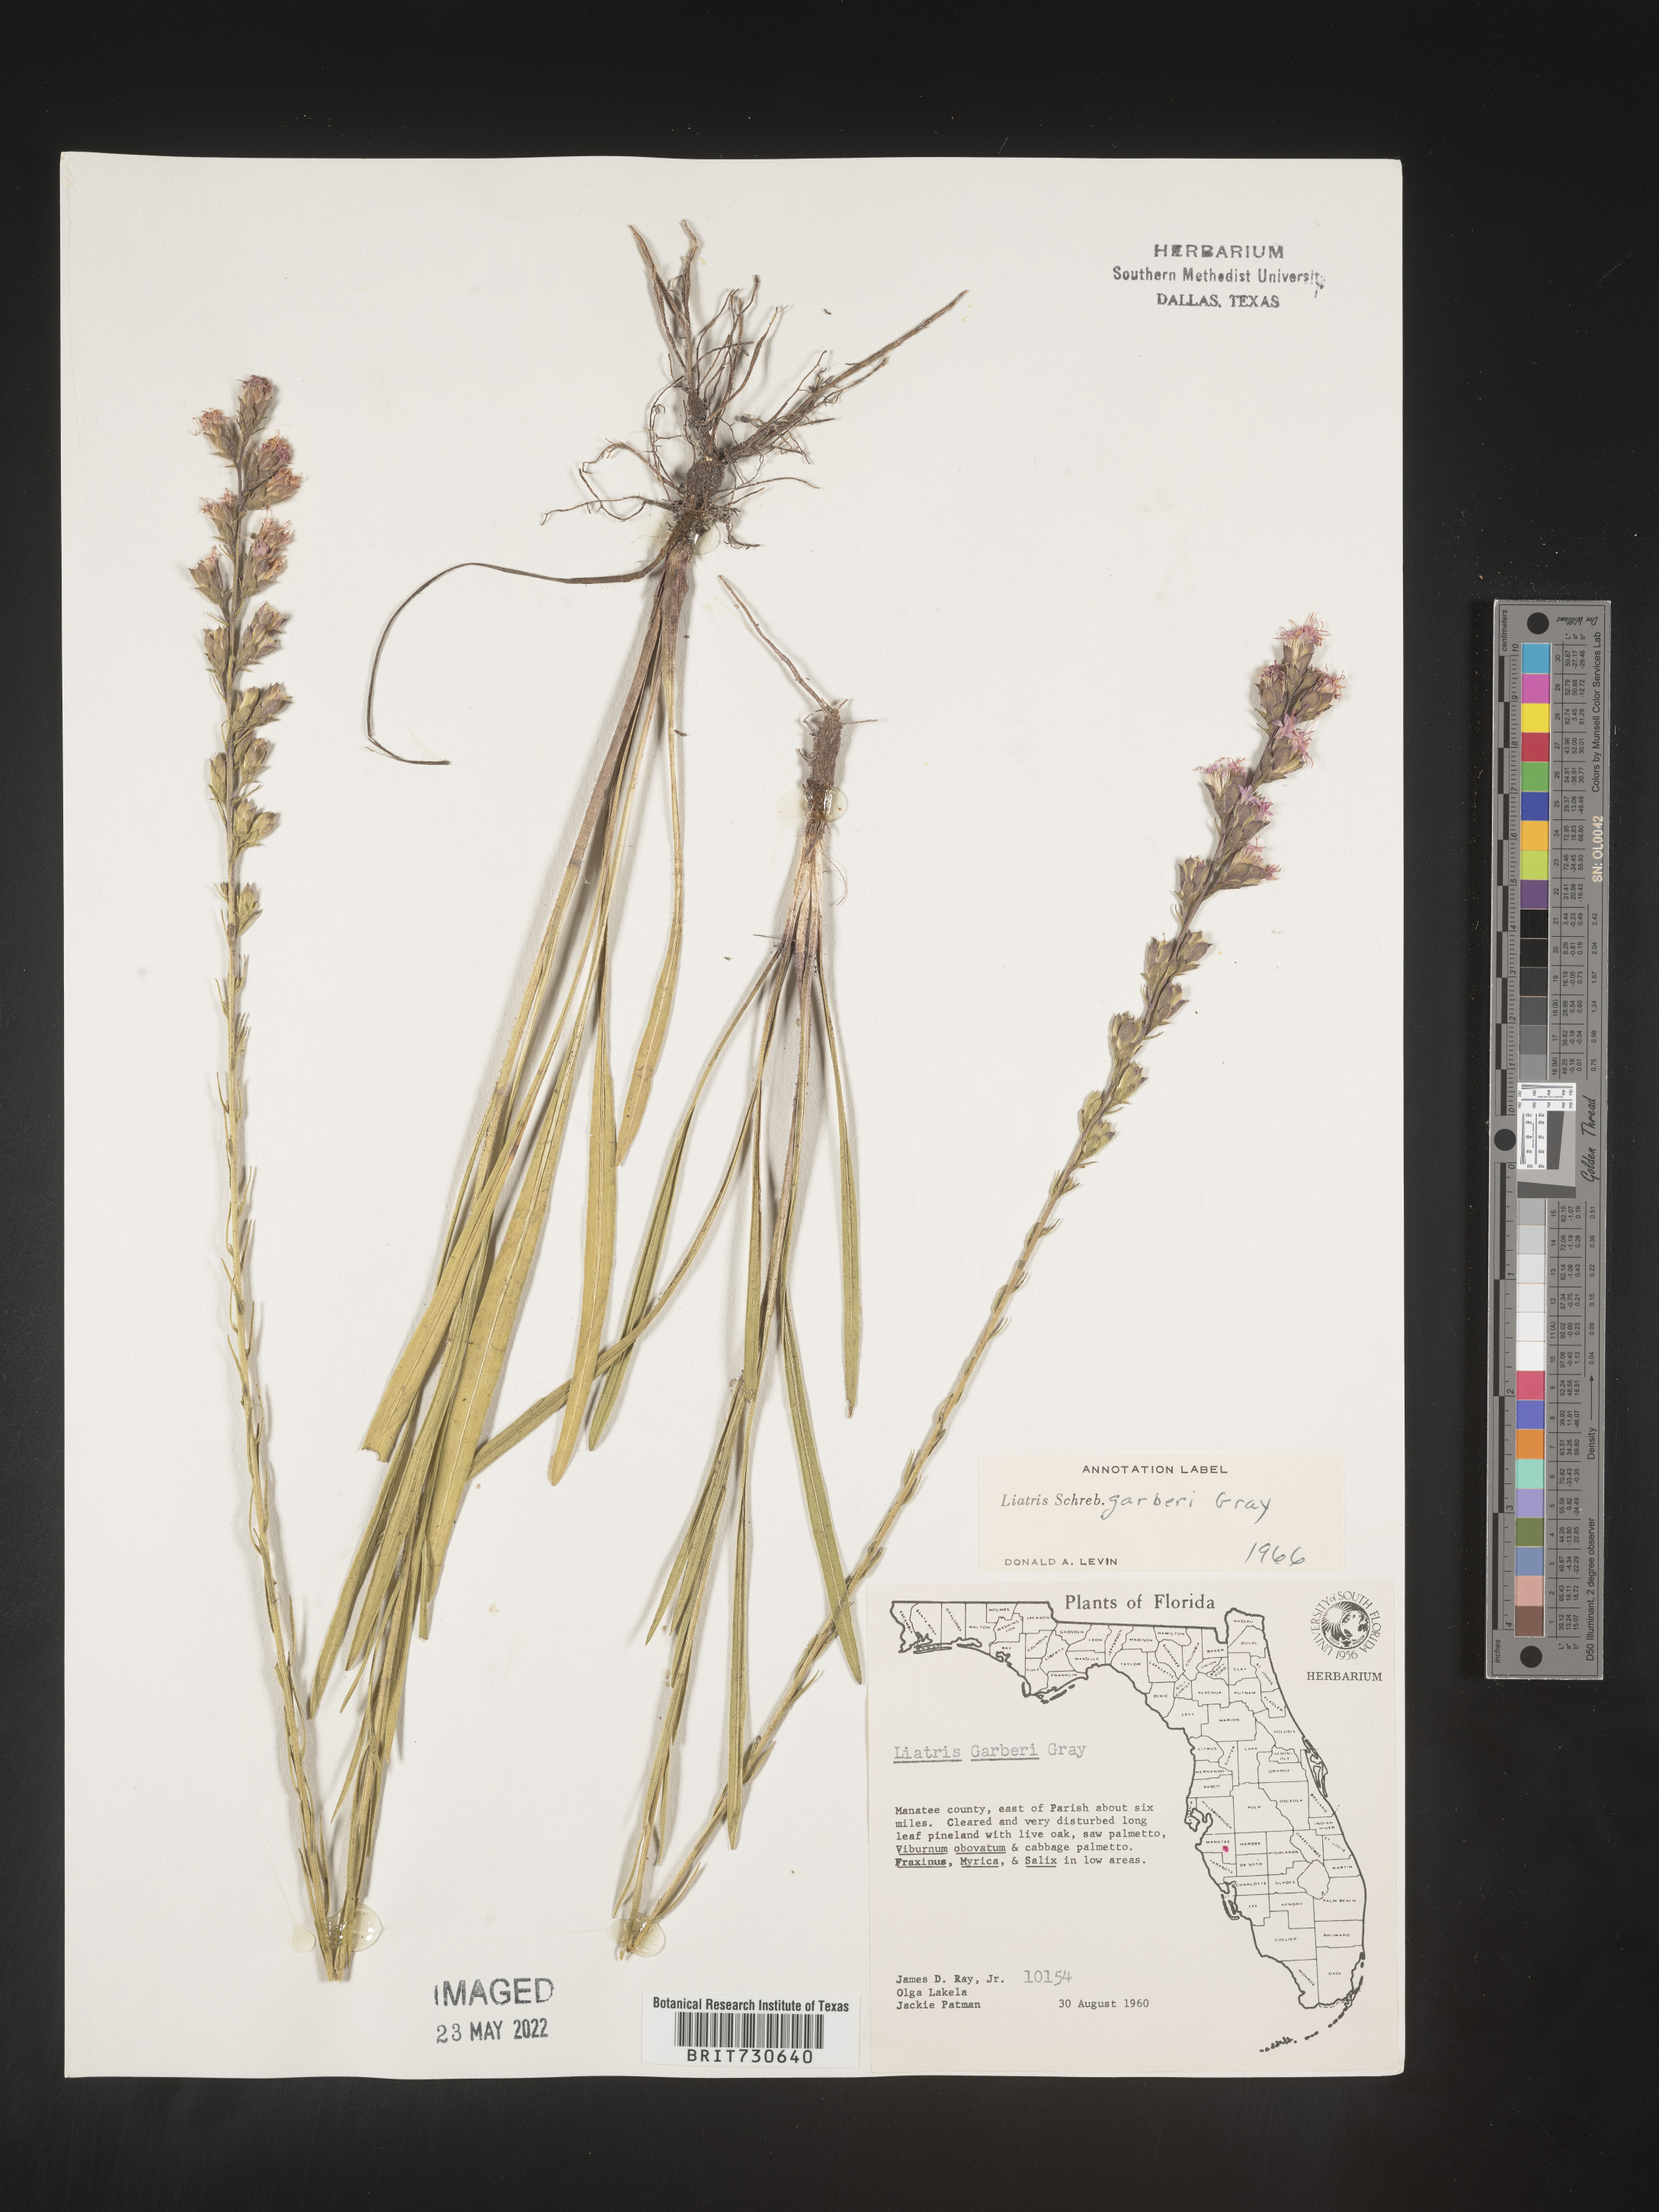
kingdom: Plantae
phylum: Tracheophyta
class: Magnoliopsida
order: Asterales
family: Asteraceae
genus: Liatris
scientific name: Liatris garberi
